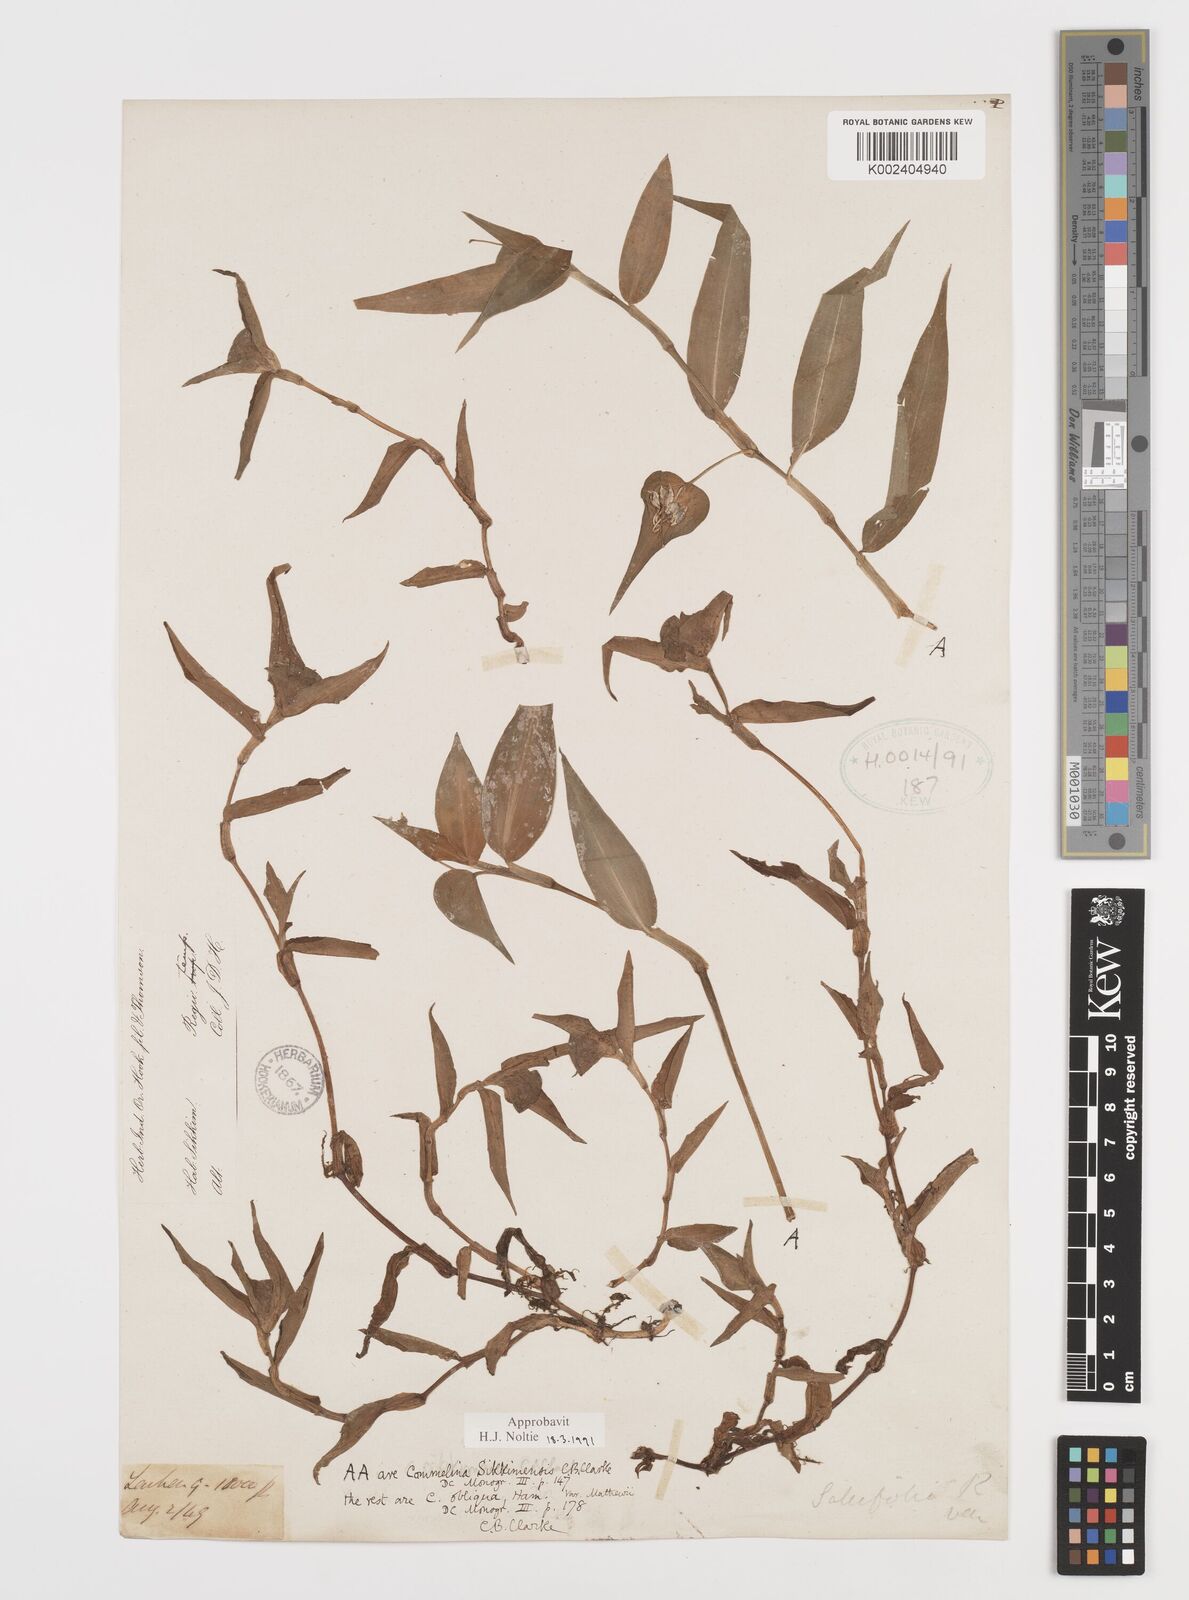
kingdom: Plantae
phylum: Tracheophyta
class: Liliopsida
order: Commelinales
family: Commelinaceae
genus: Commelina
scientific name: Commelina sikkimensis
